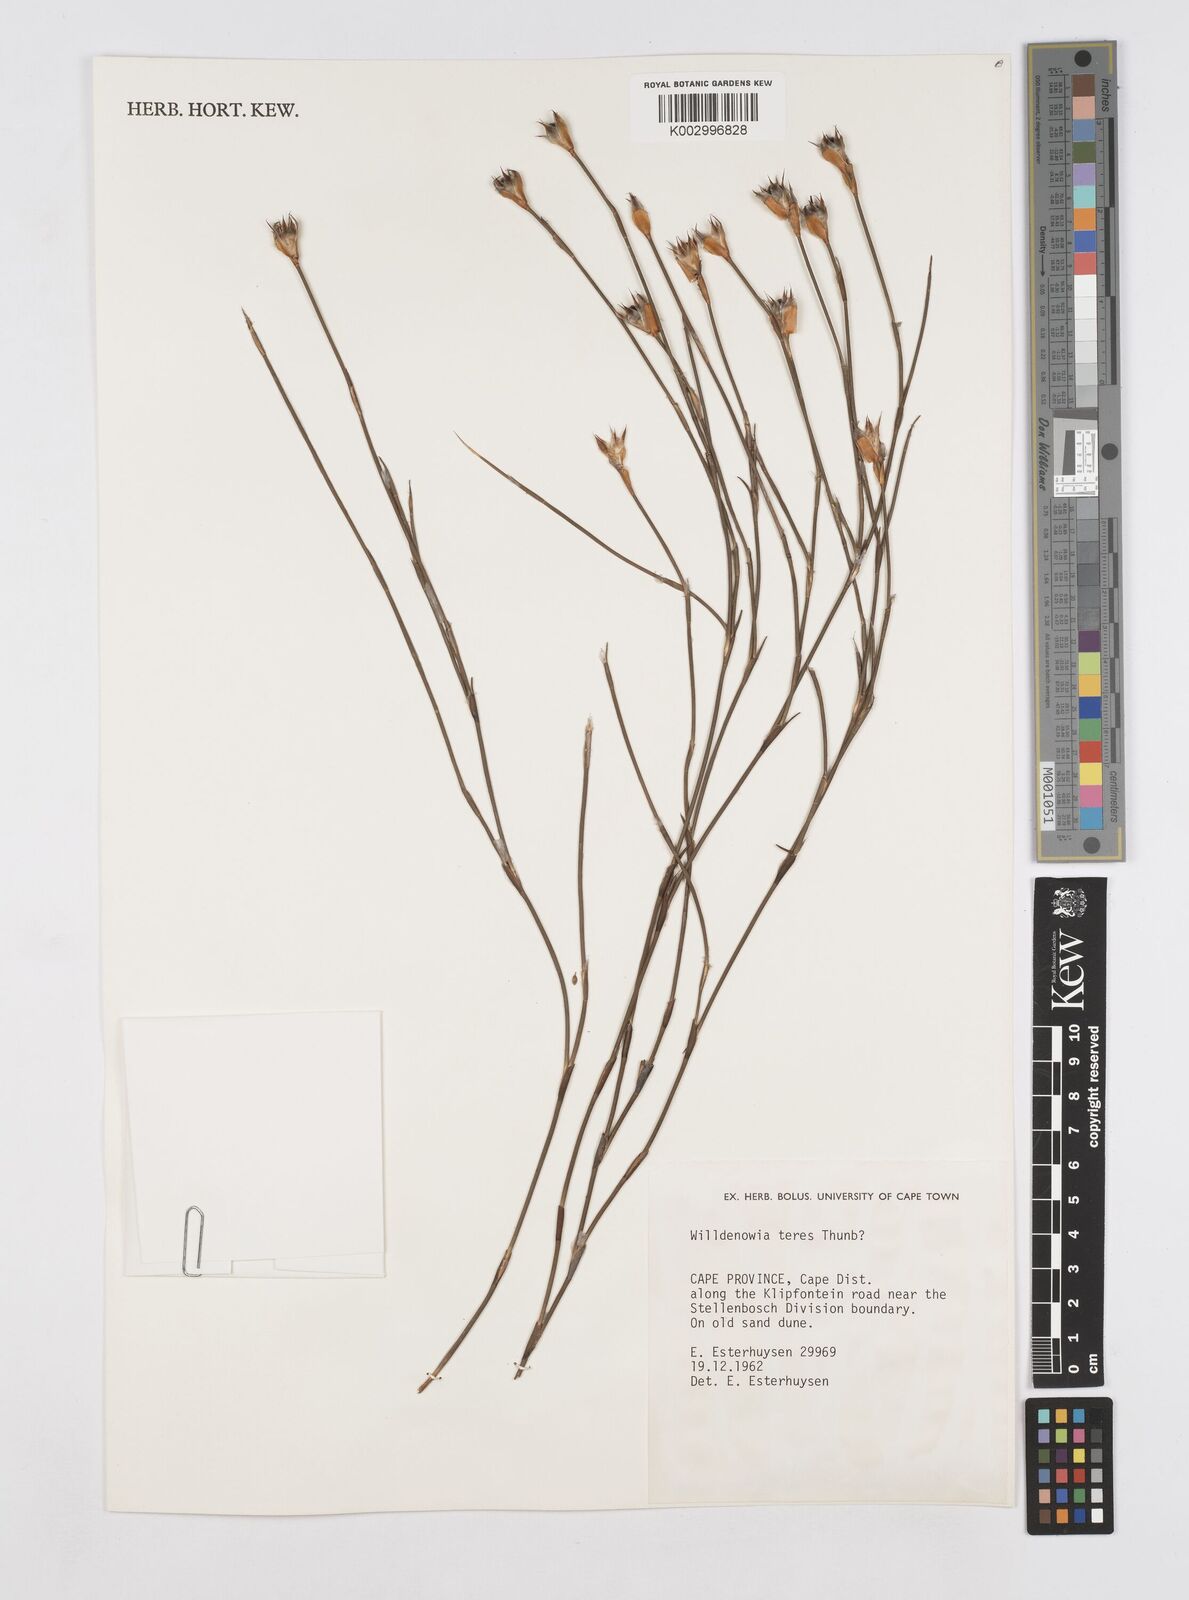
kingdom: Plantae
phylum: Tracheophyta
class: Liliopsida
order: Poales
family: Restionaceae
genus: Willdenowia
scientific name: Willdenowia teres
